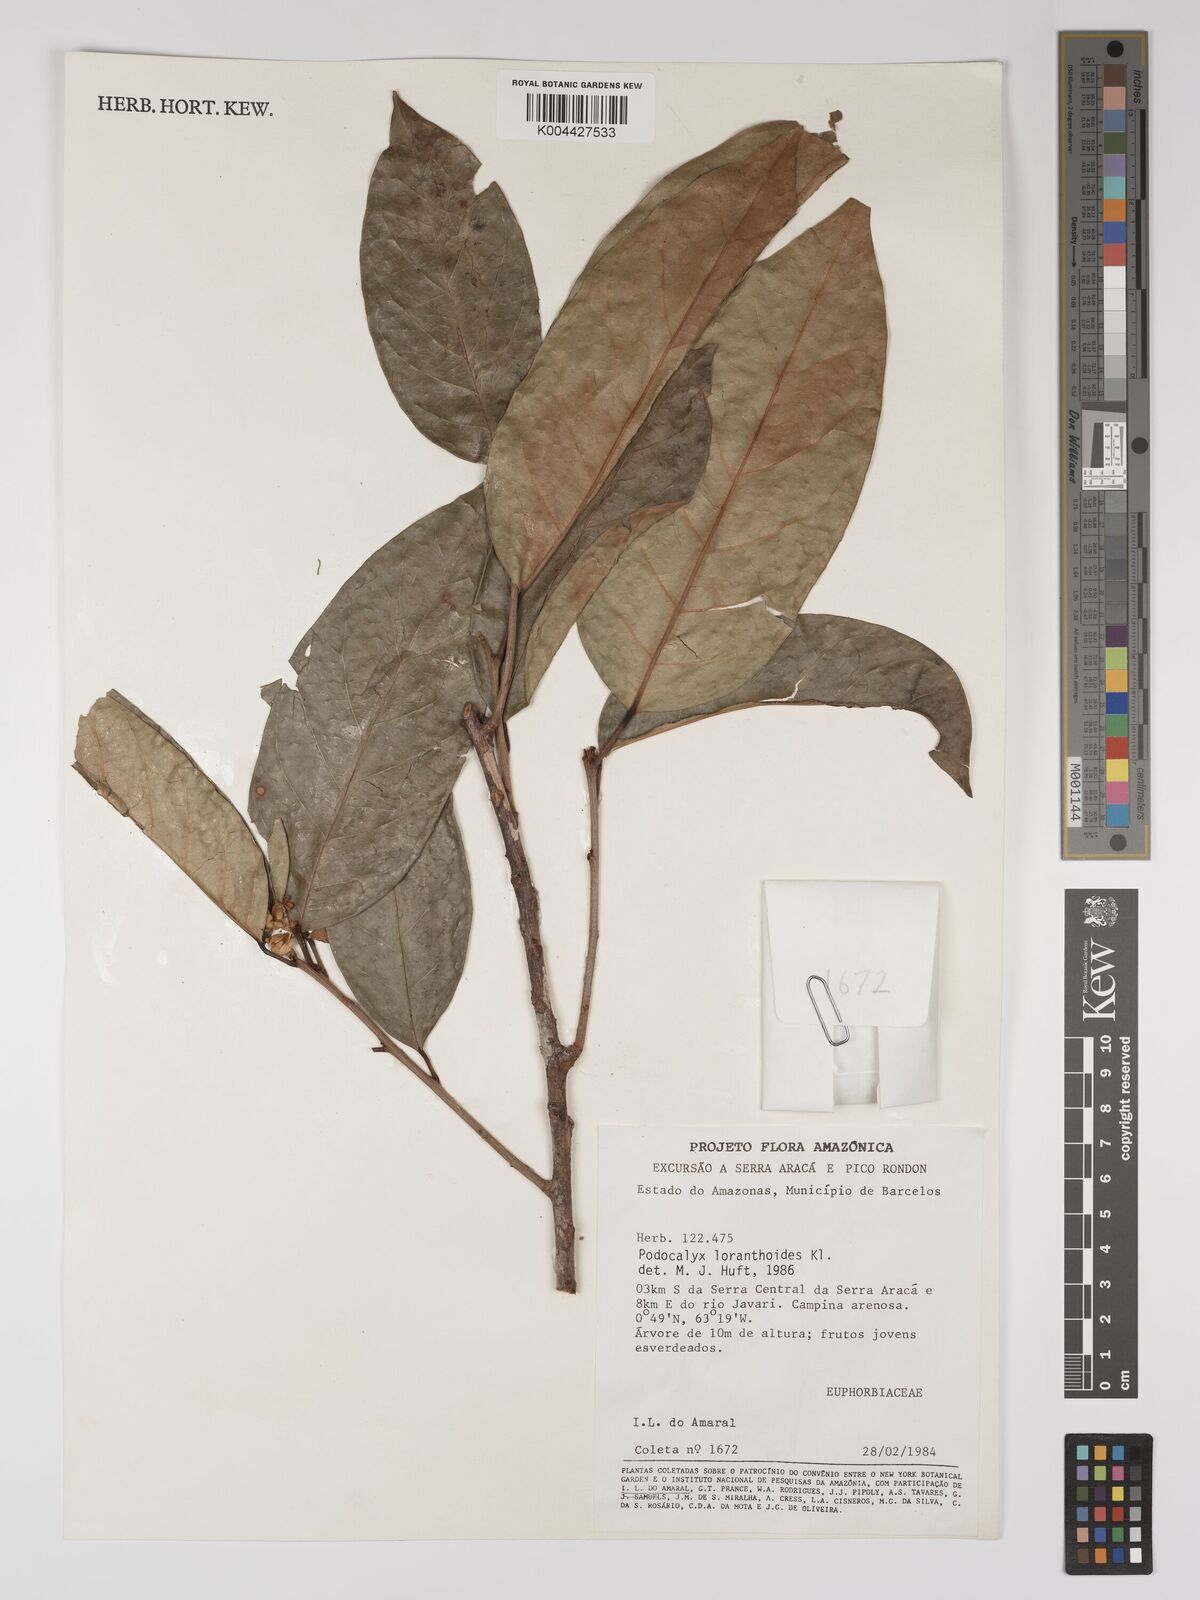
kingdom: Plantae
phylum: Tracheophyta
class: Magnoliopsida
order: Malpighiales
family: Picrodendraceae
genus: Podocalyx
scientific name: Podocalyx loranthoides
